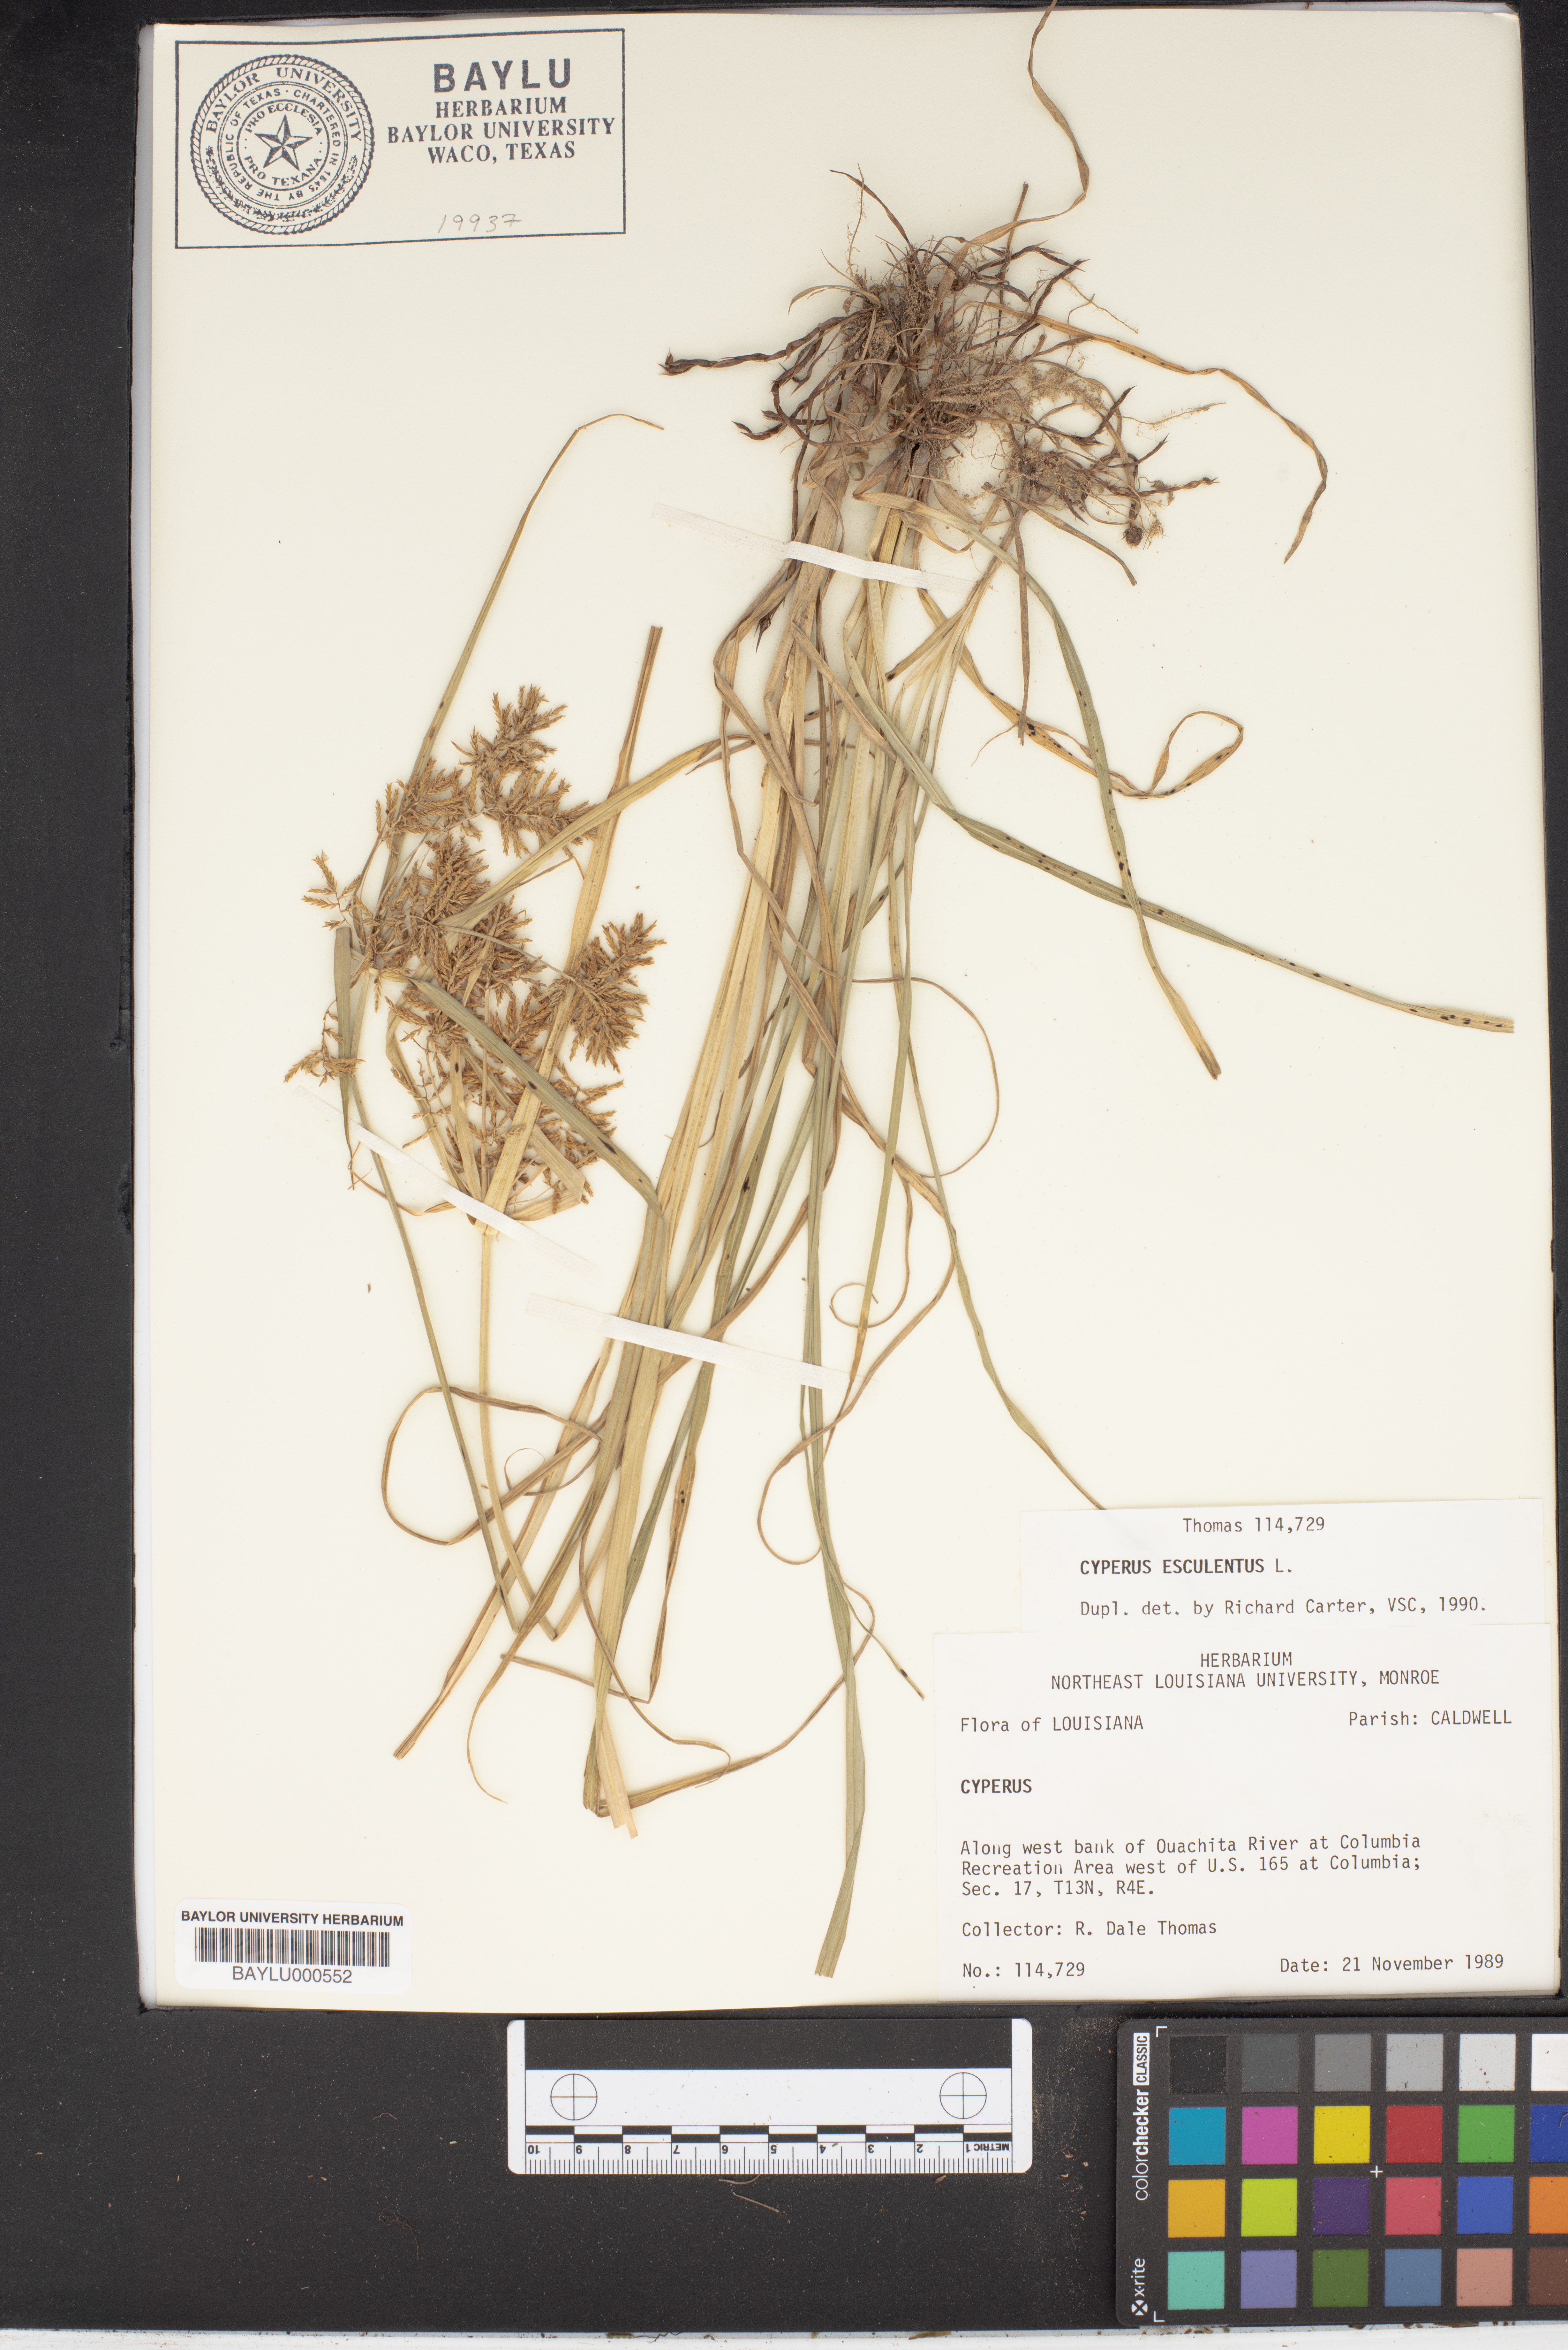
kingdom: Plantae
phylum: Tracheophyta
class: Liliopsida
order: Poales
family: Cyperaceae
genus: Cyperus
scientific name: Cyperus esculentus
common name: Yellow nutsedge
